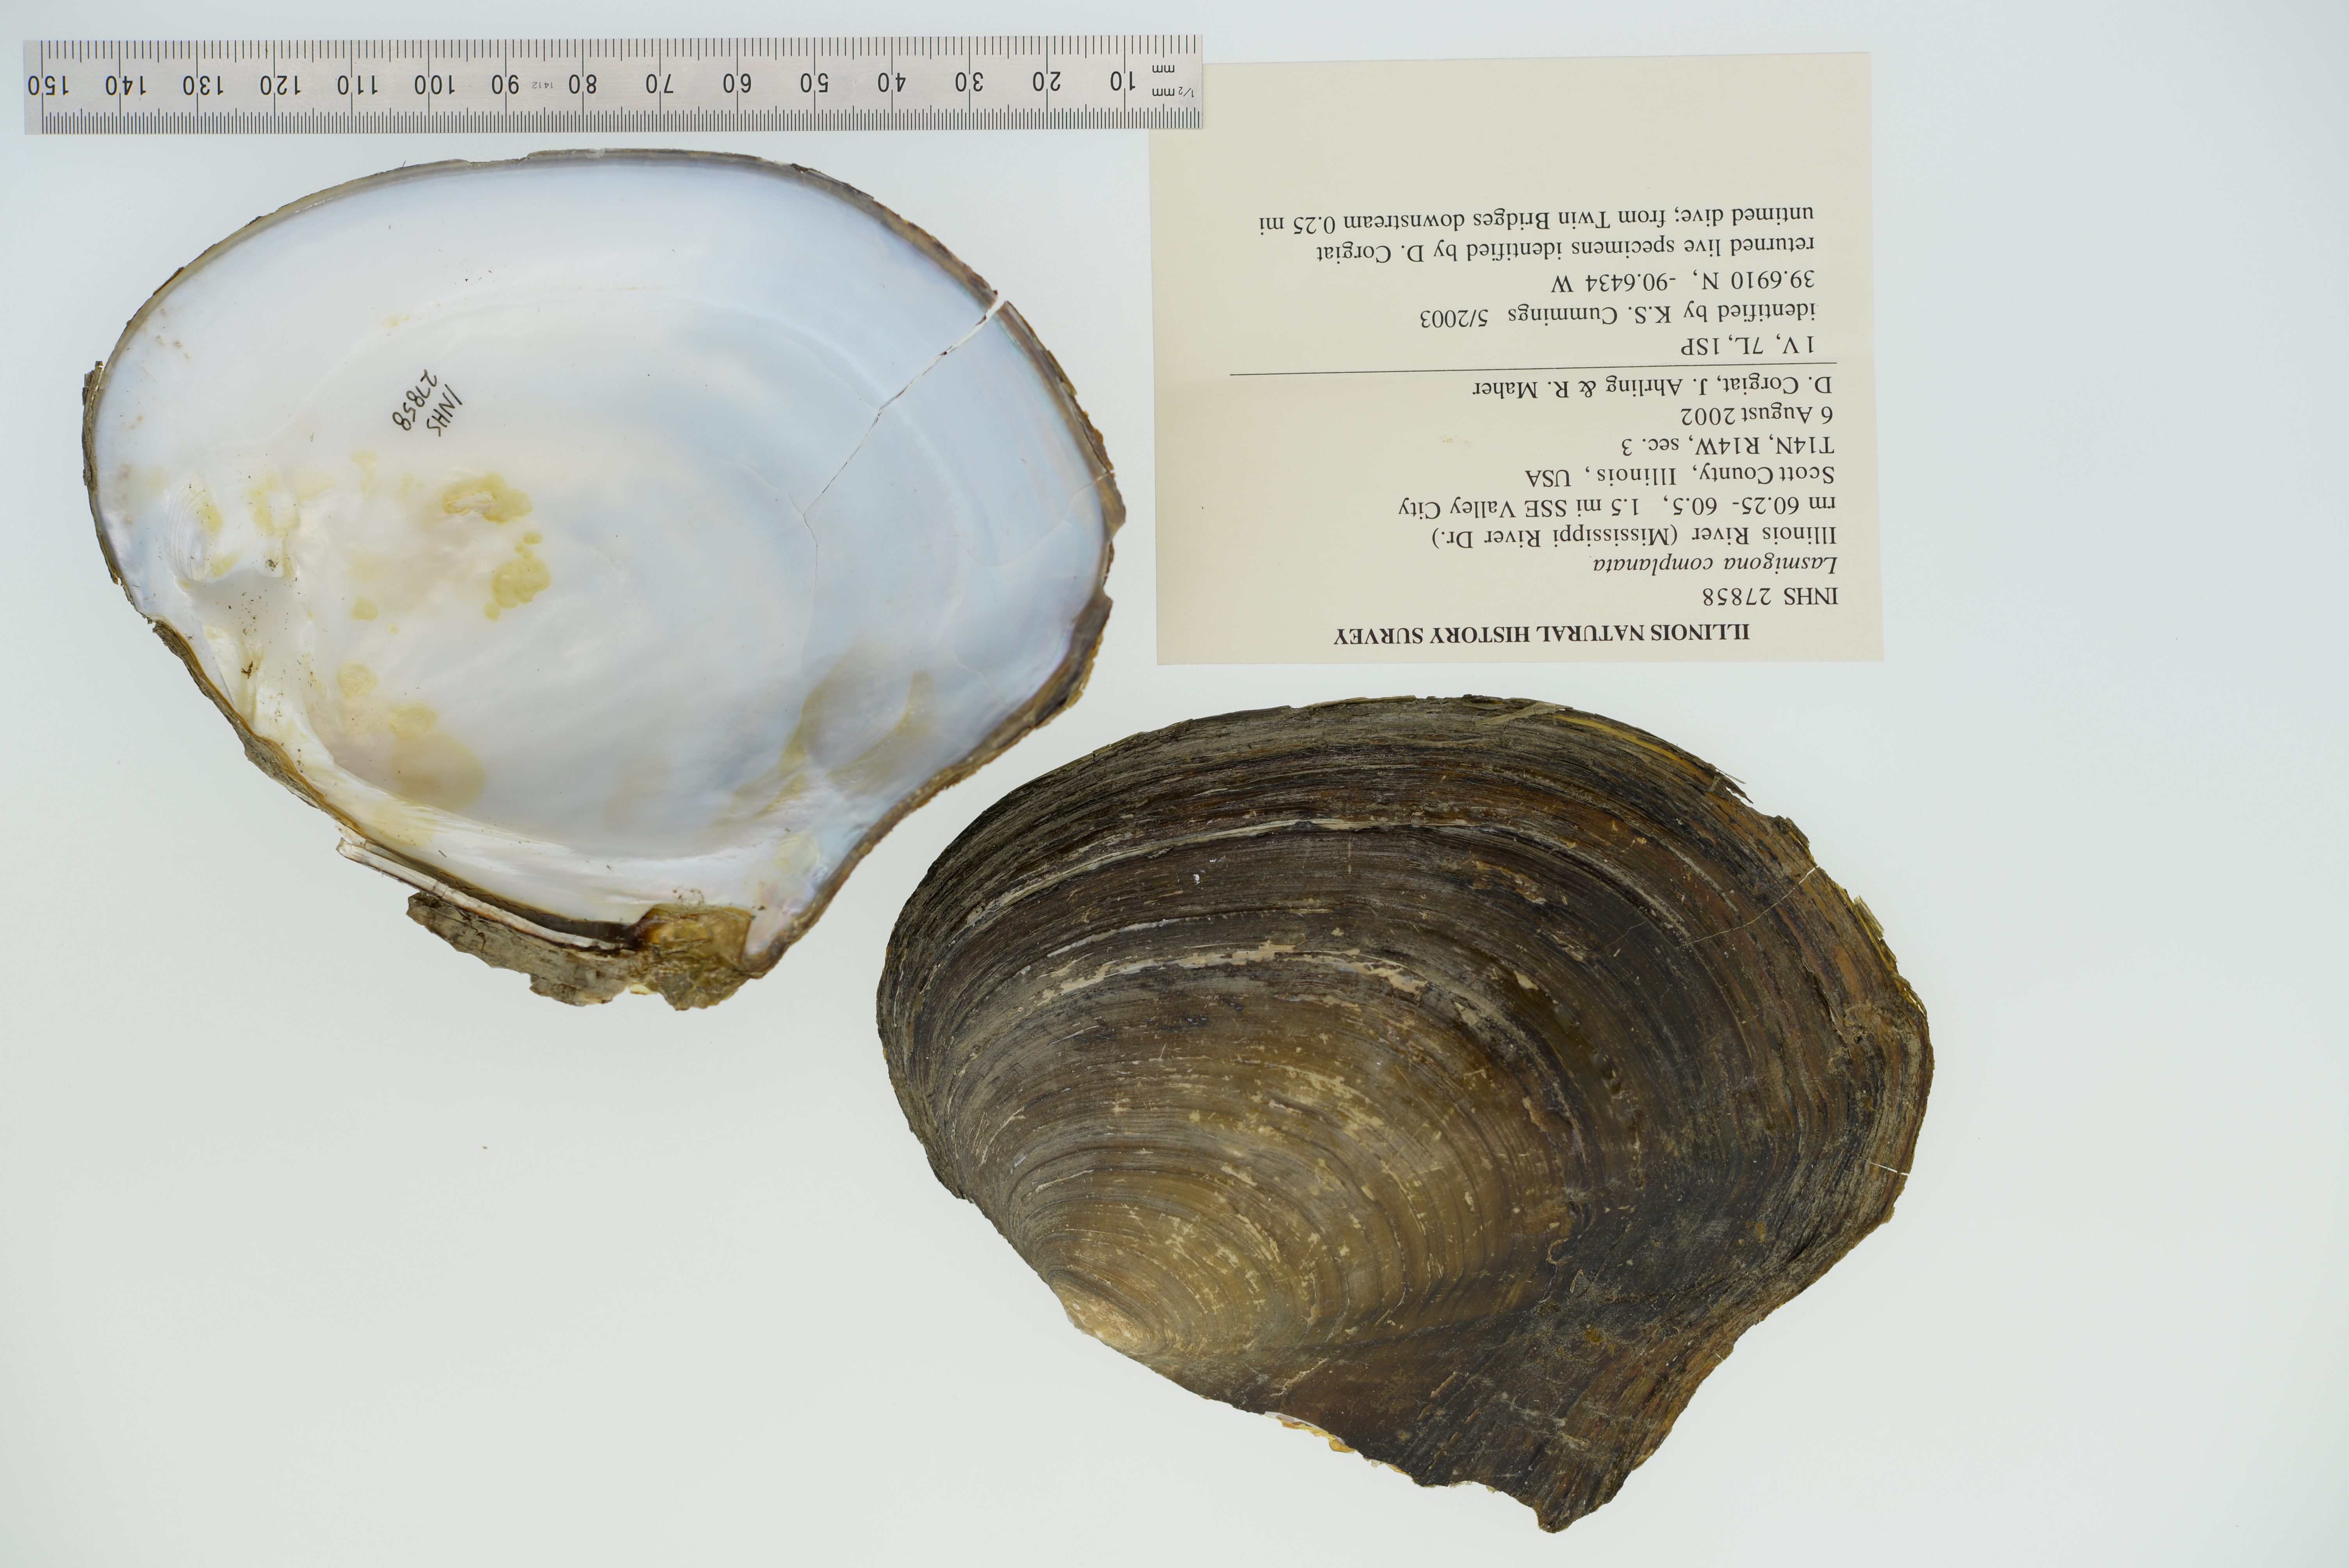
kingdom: Animalia
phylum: Mollusca
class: Bivalvia
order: Unionida
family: Unionidae
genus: Lasmigona
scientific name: Lasmigona complanata
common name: White heelsplitter
